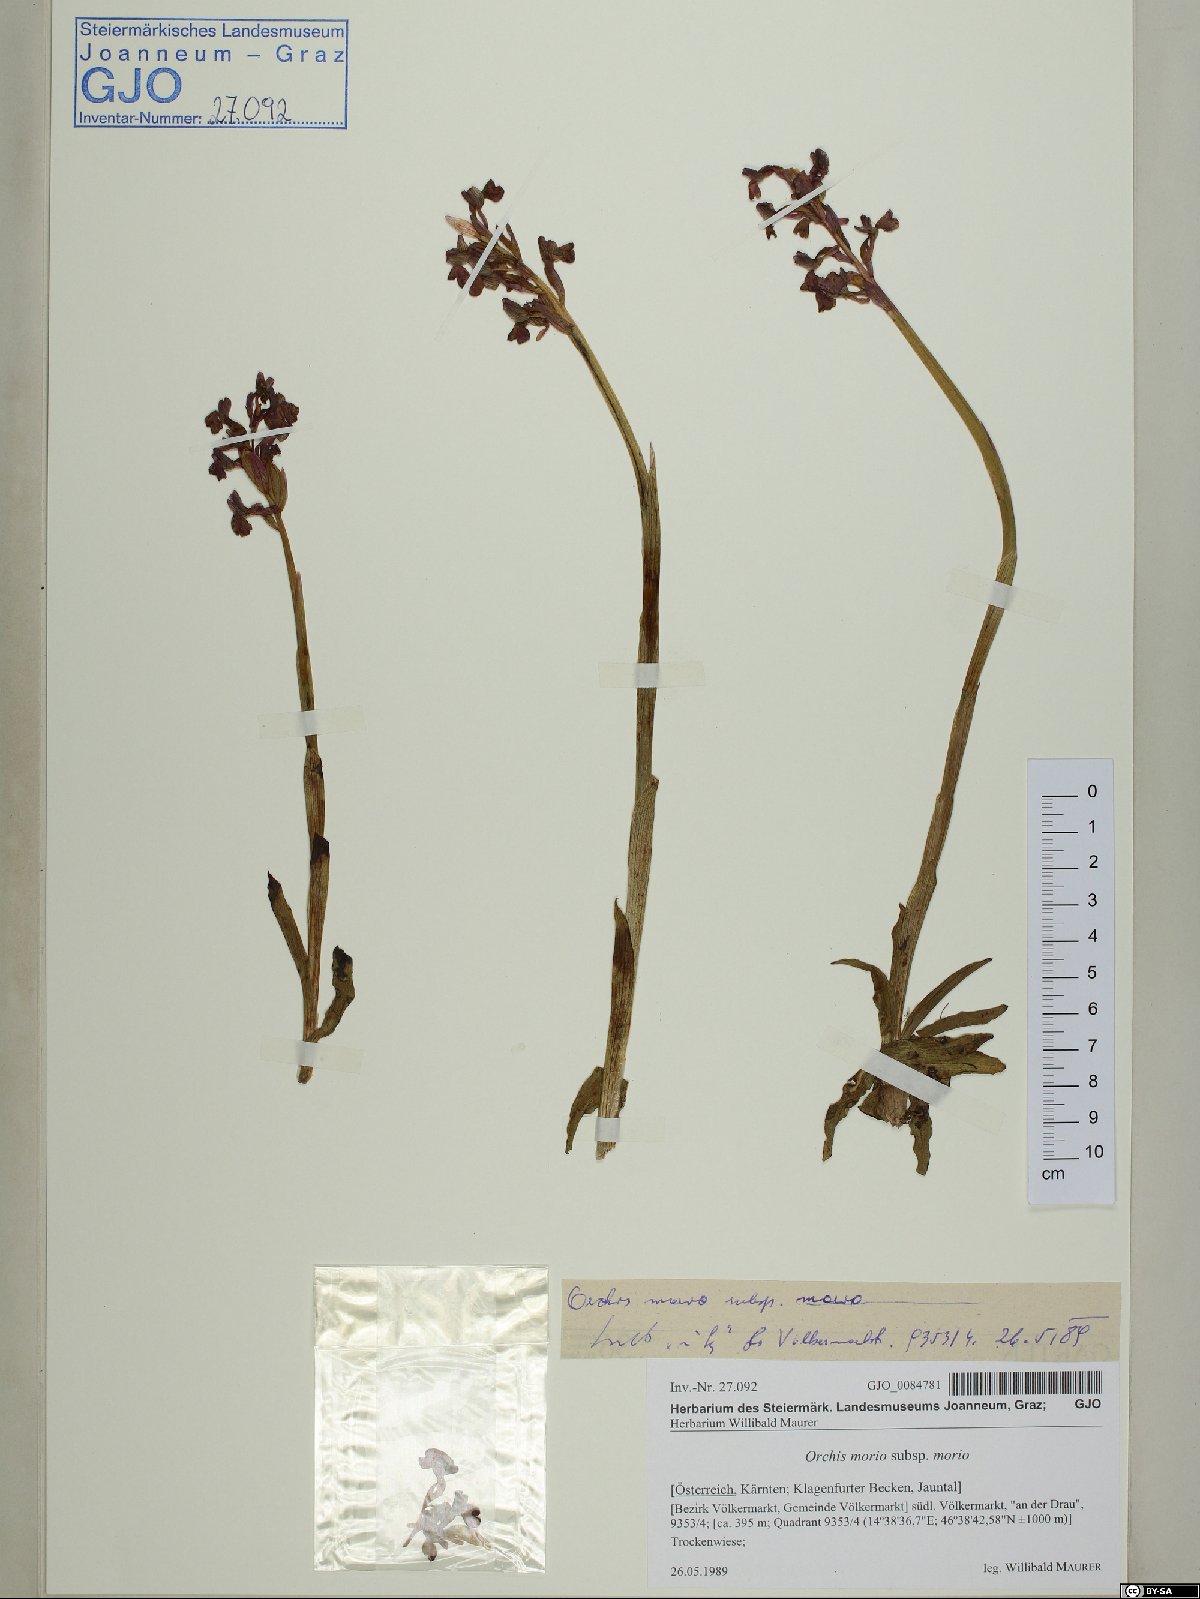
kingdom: Plantae
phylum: Tracheophyta
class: Liliopsida
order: Asparagales
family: Orchidaceae
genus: Anacamptis
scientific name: Anacamptis morio
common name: Green-winged orchid
